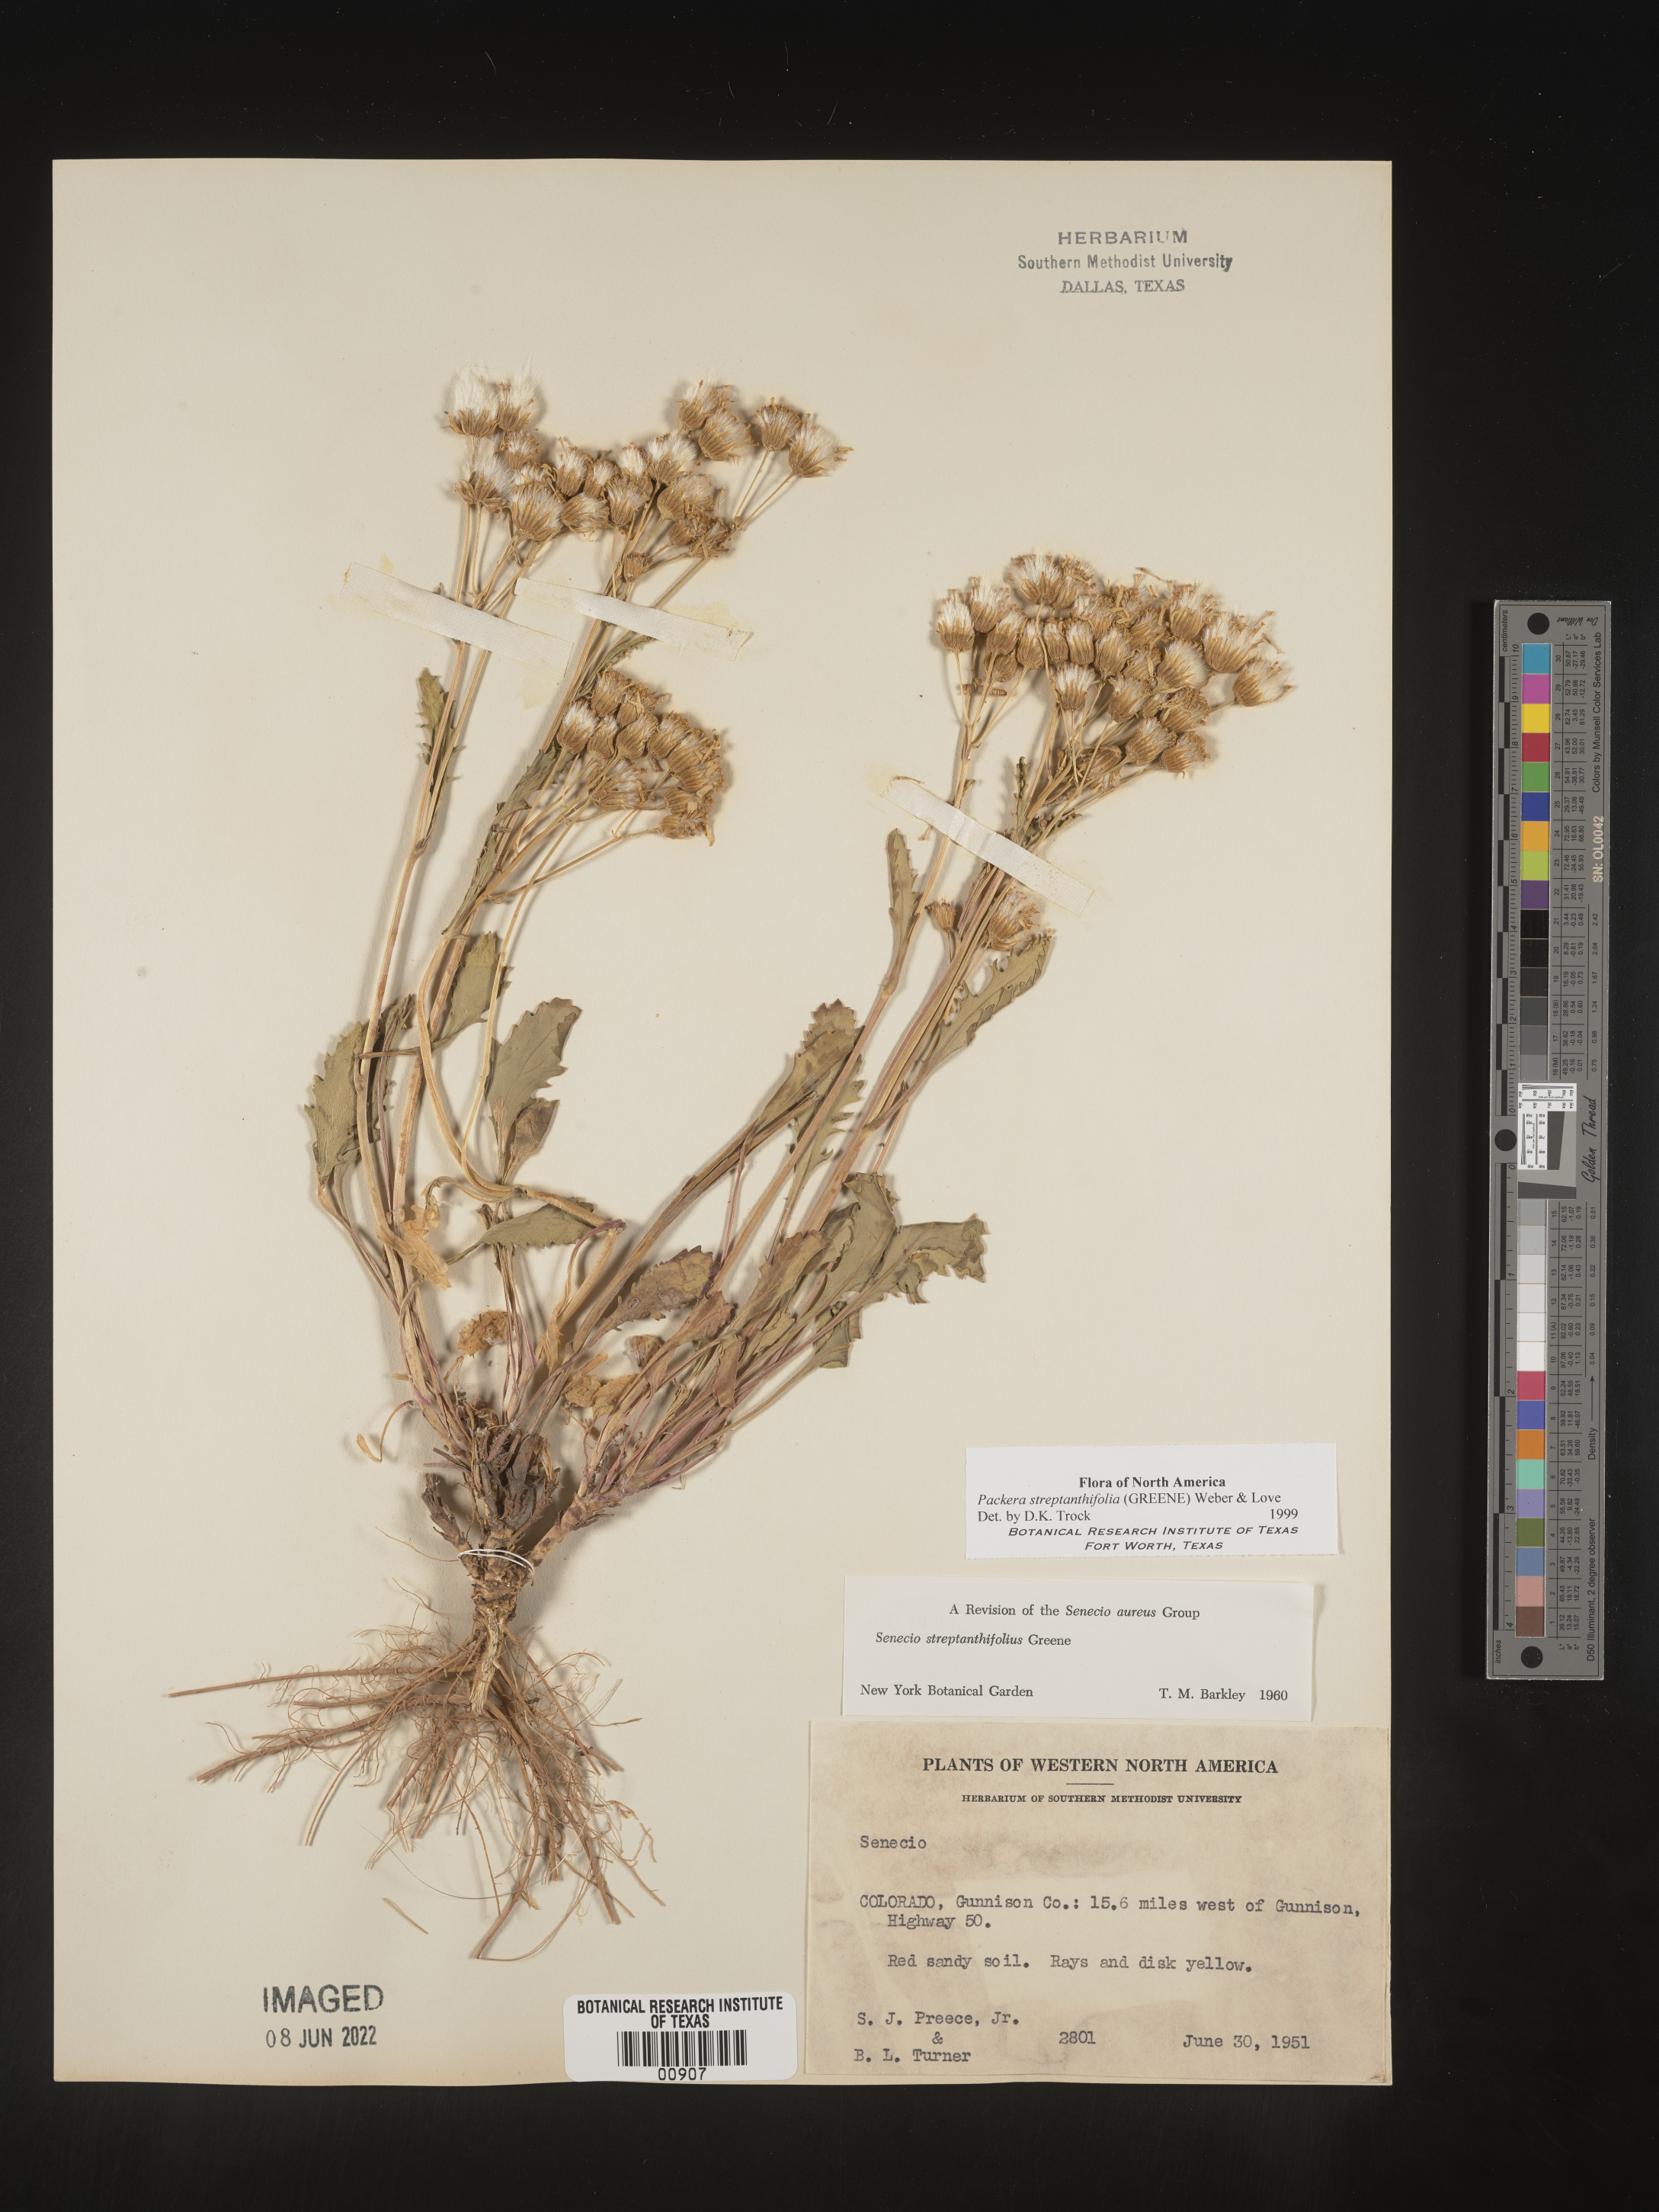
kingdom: Plantae
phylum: Tracheophyta
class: Magnoliopsida
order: Asterales
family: Asteraceae
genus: Packera
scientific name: Packera streptanthifolia
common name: Rocky mountain butterweed
